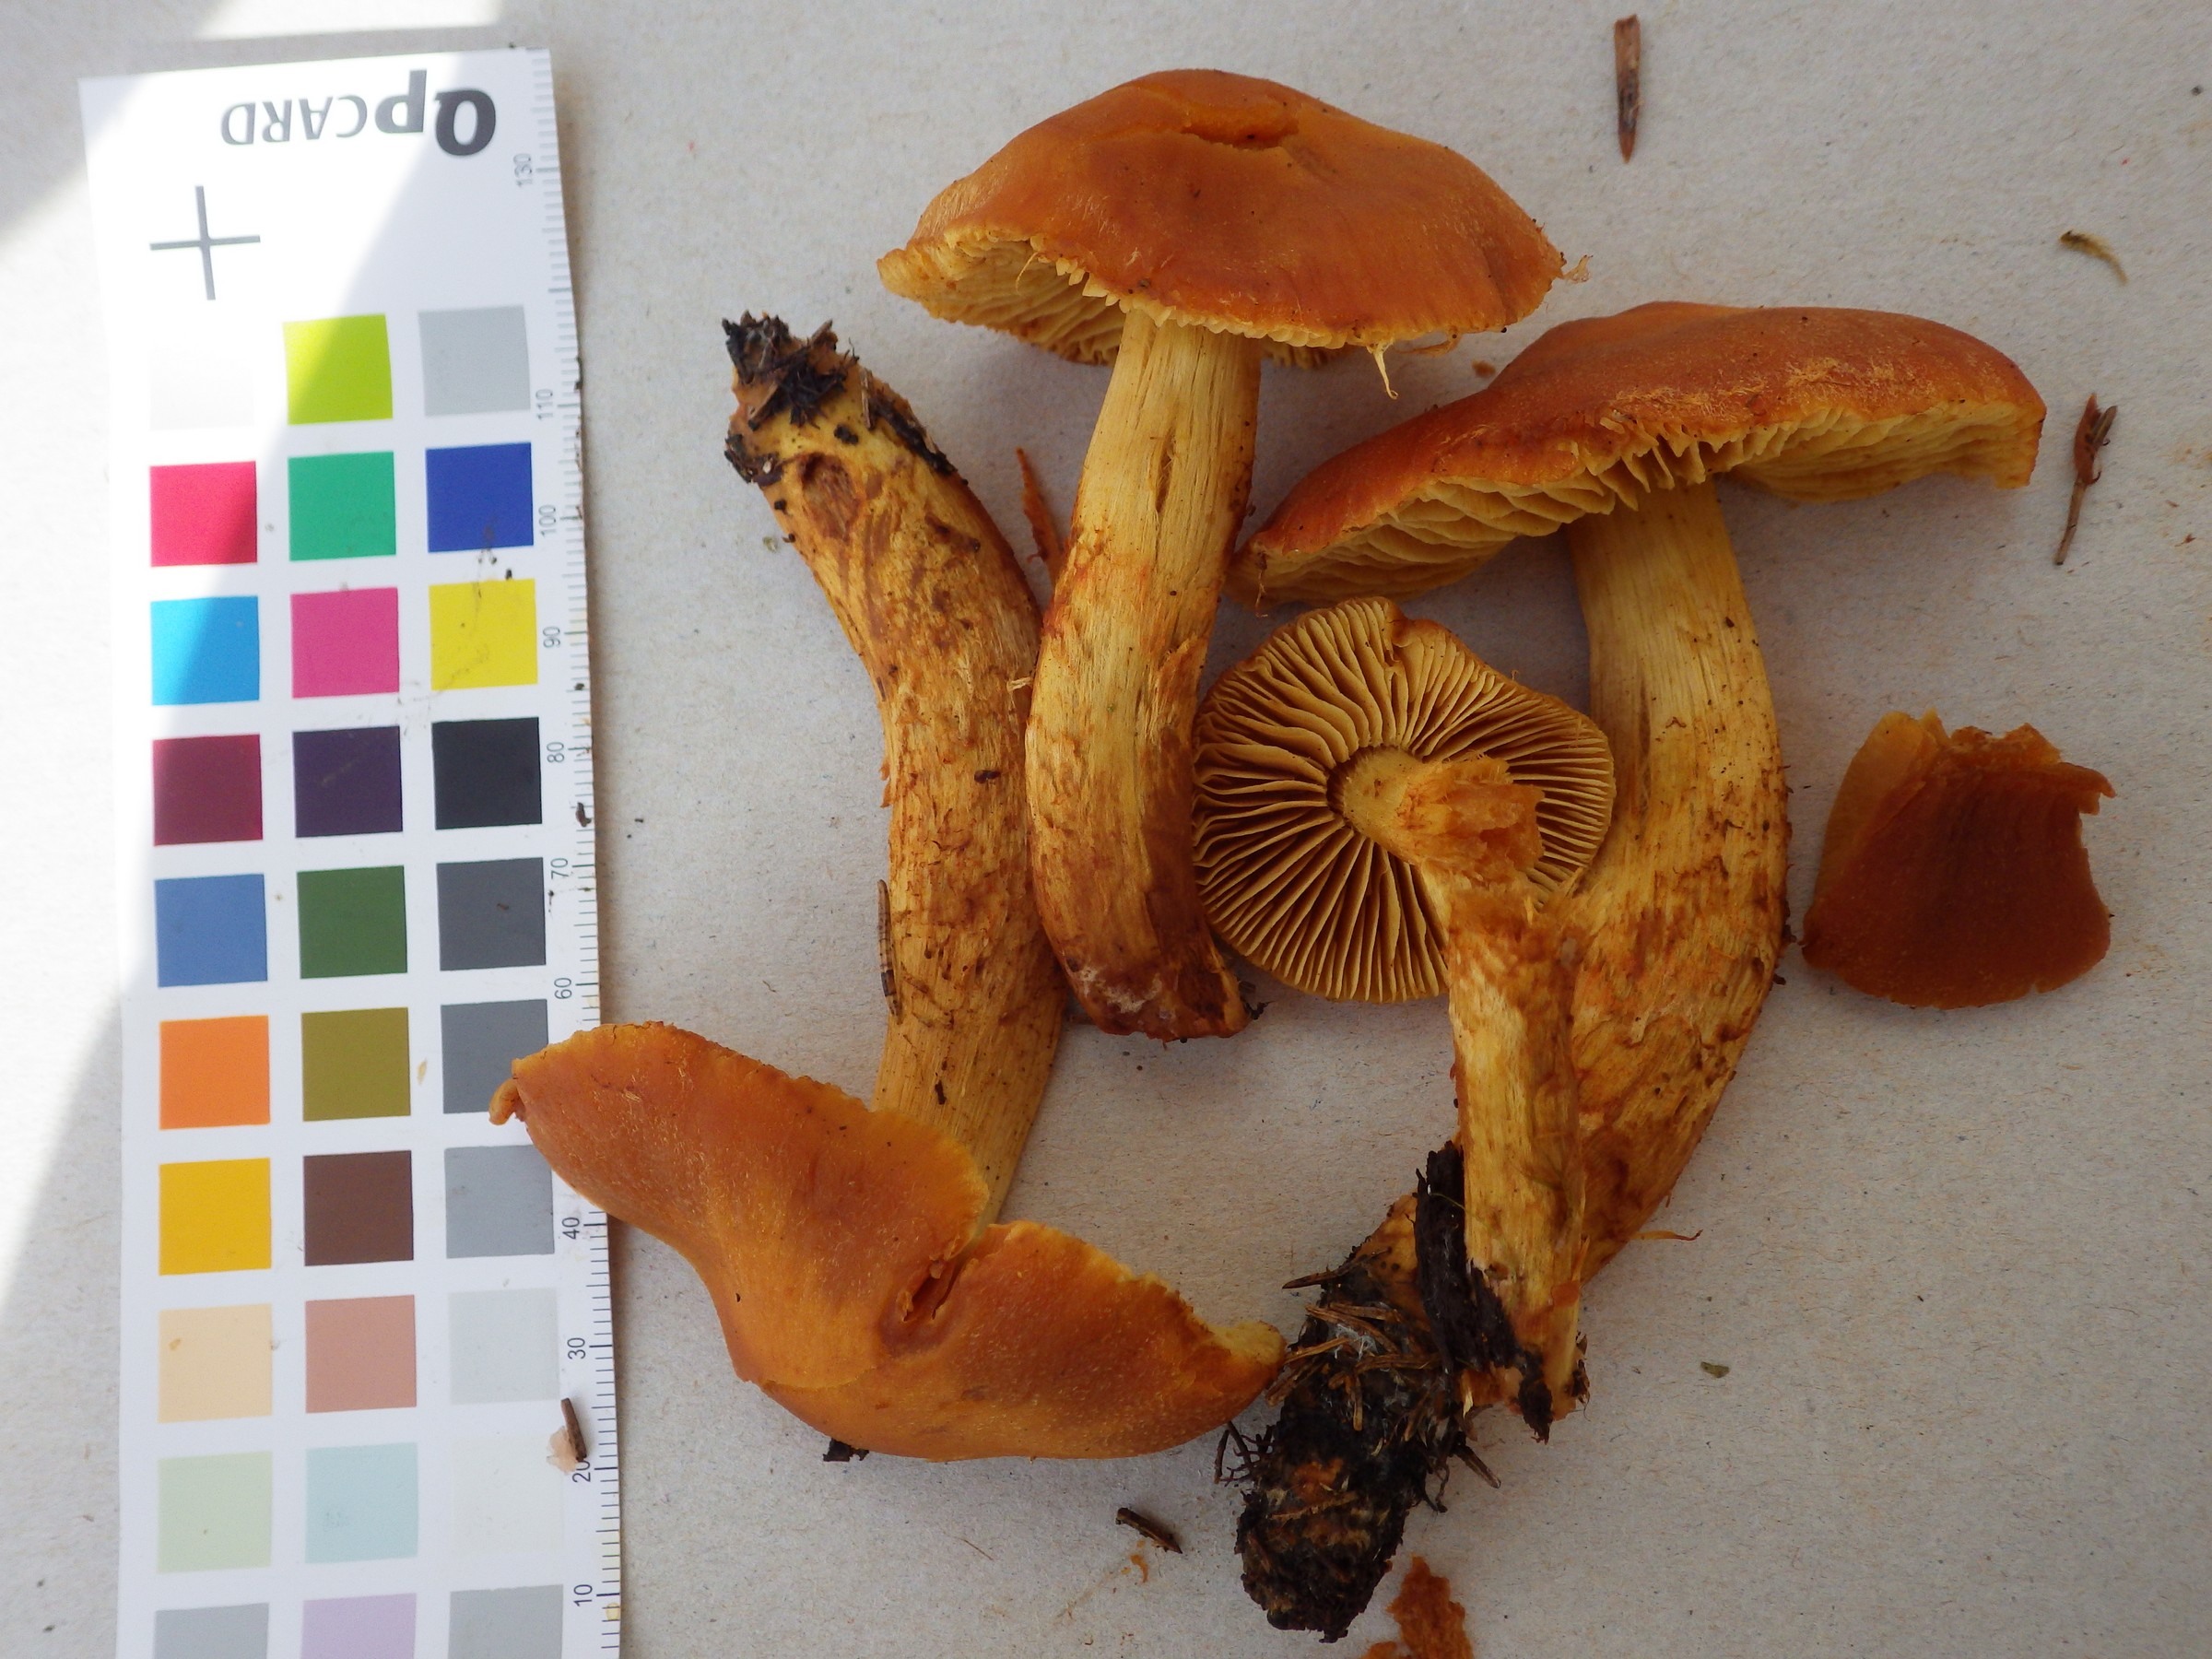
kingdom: Fungi
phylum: Basidiomycota
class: Agaricomycetes
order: Agaricales
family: Cortinariaceae
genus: Aureonarius
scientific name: Aureonarius limonius
